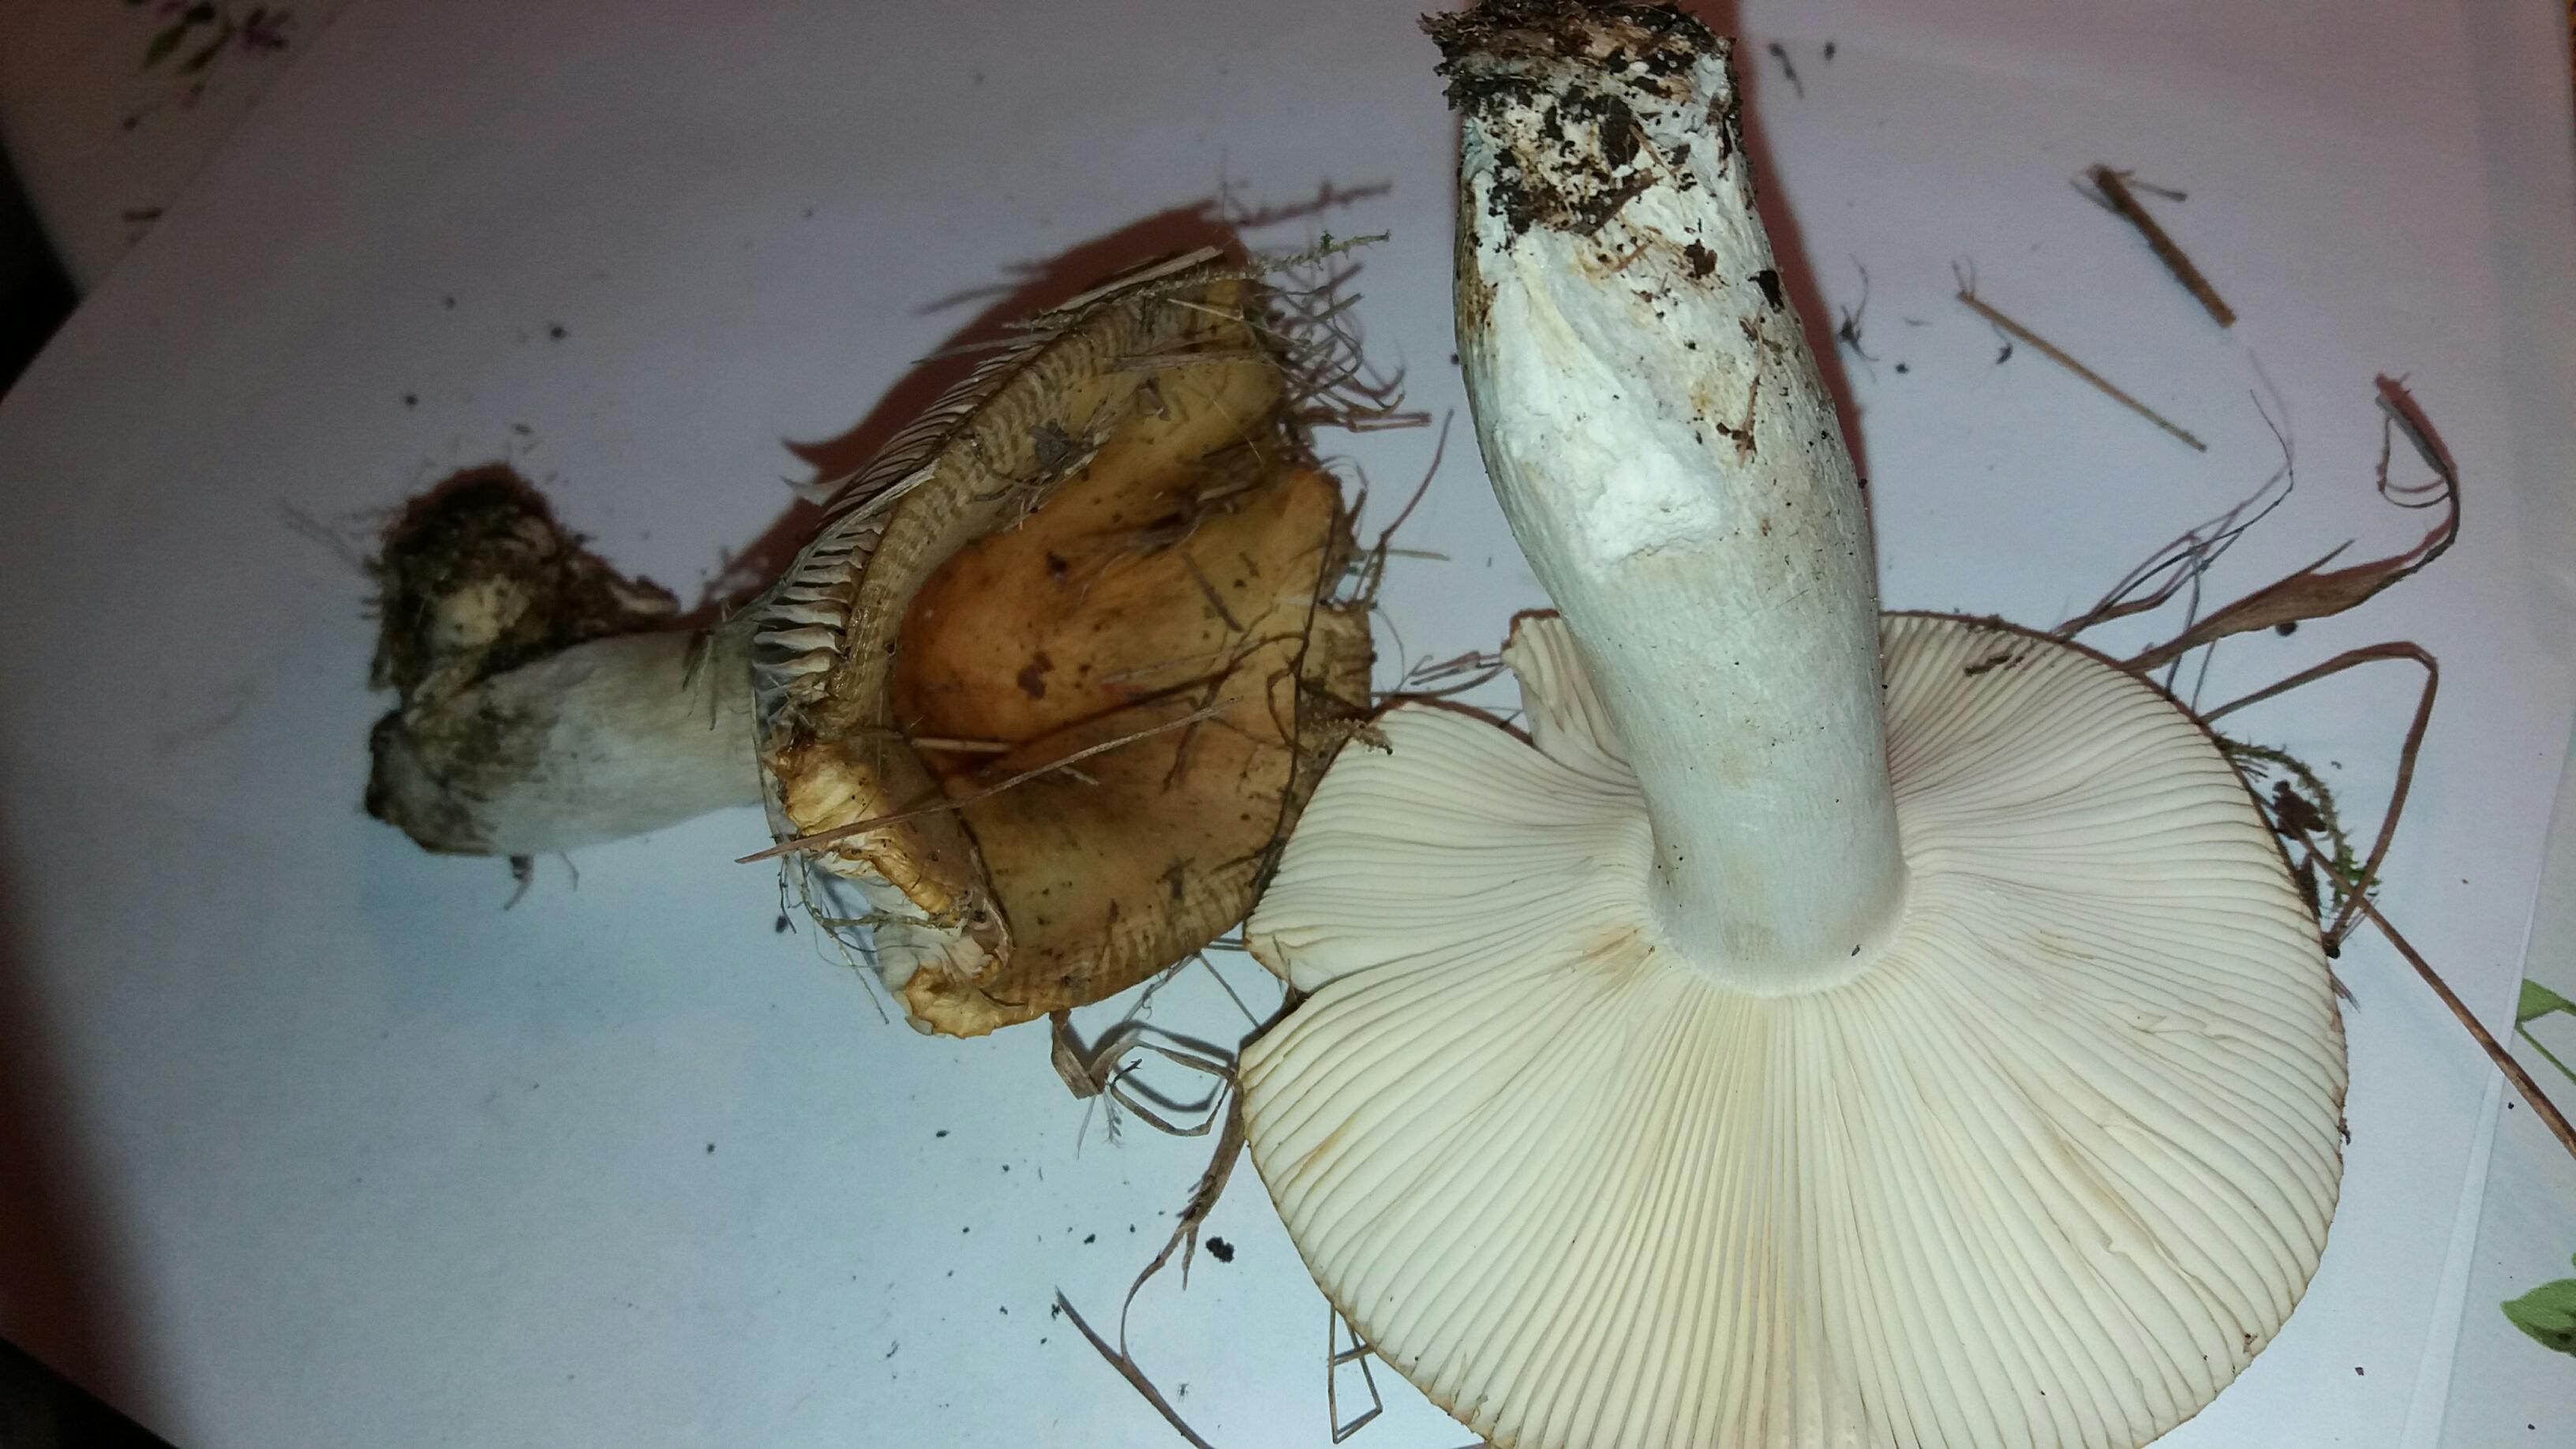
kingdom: Fungi
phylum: Basidiomycota
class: Agaricomycetes
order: Russulales
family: Russulaceae
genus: Russula
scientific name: Russula
